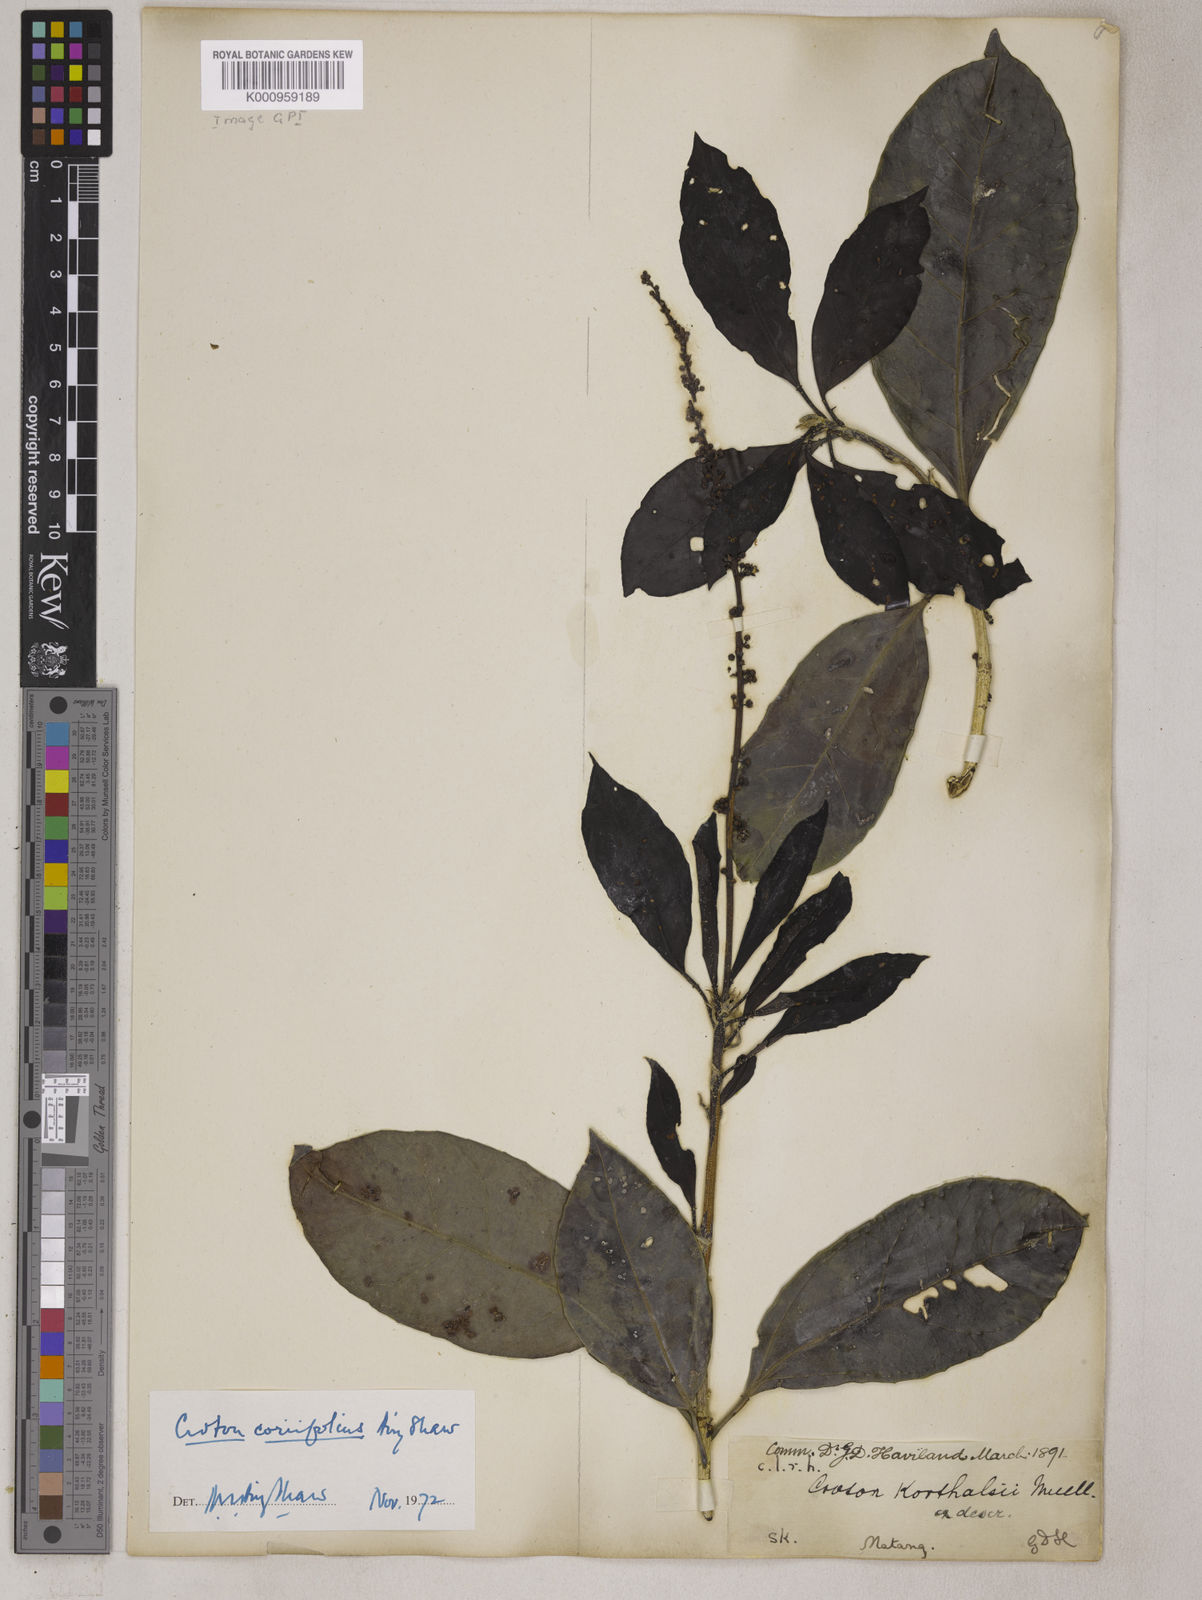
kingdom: Plantae
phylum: Tracheophyta
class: Magnoliopsida
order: Malpighiales
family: Euphorbiaceae
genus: Croton
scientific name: Croton coriifolius
